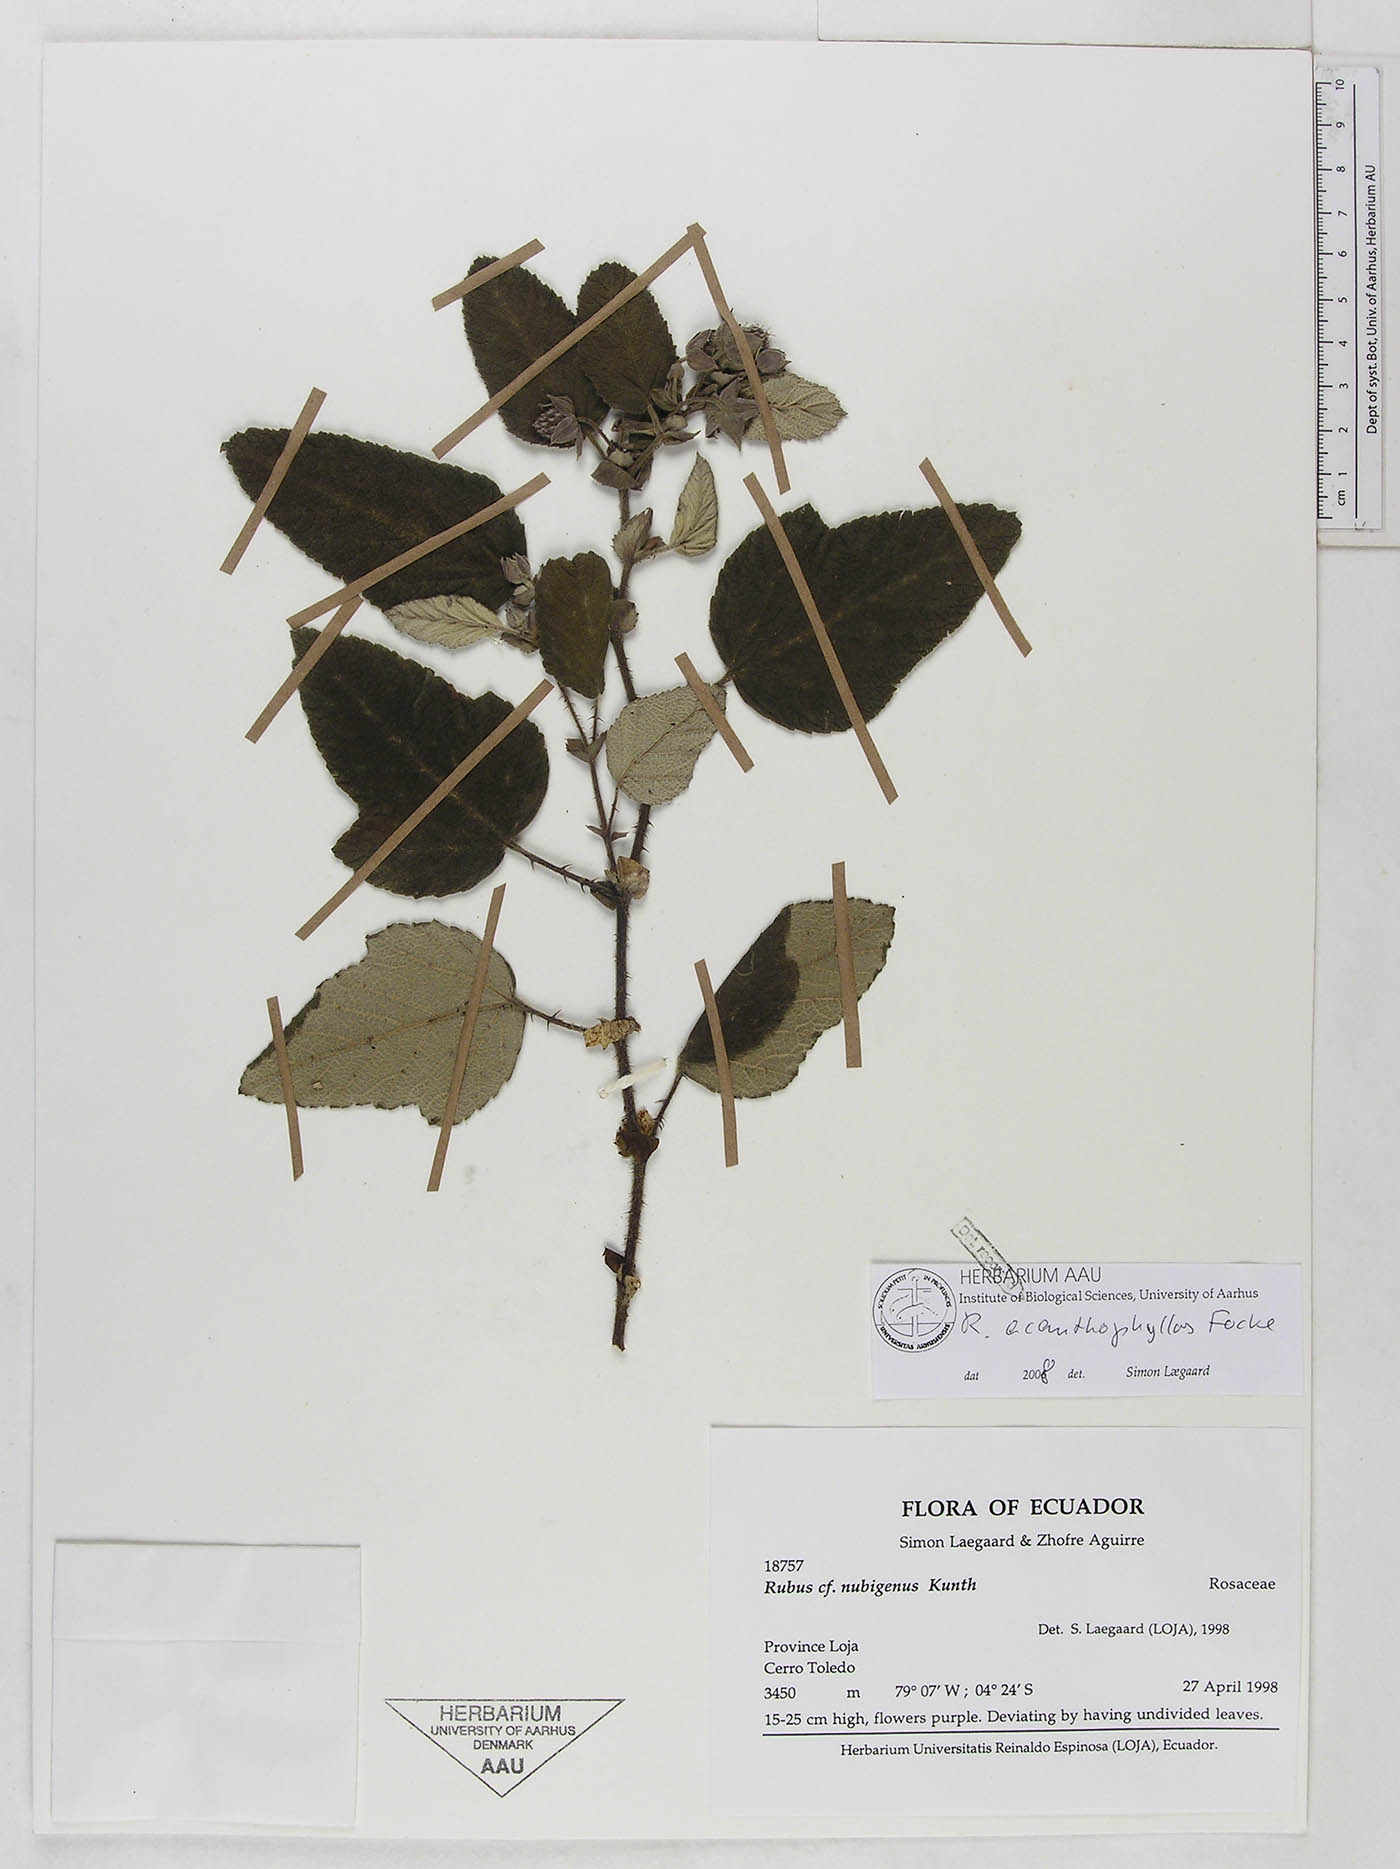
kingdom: Plantae
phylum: Tracheophyta
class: Magnoliopsida
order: Rosales
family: Rosaceae
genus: Rubus
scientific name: Rubus acanthophyllos
